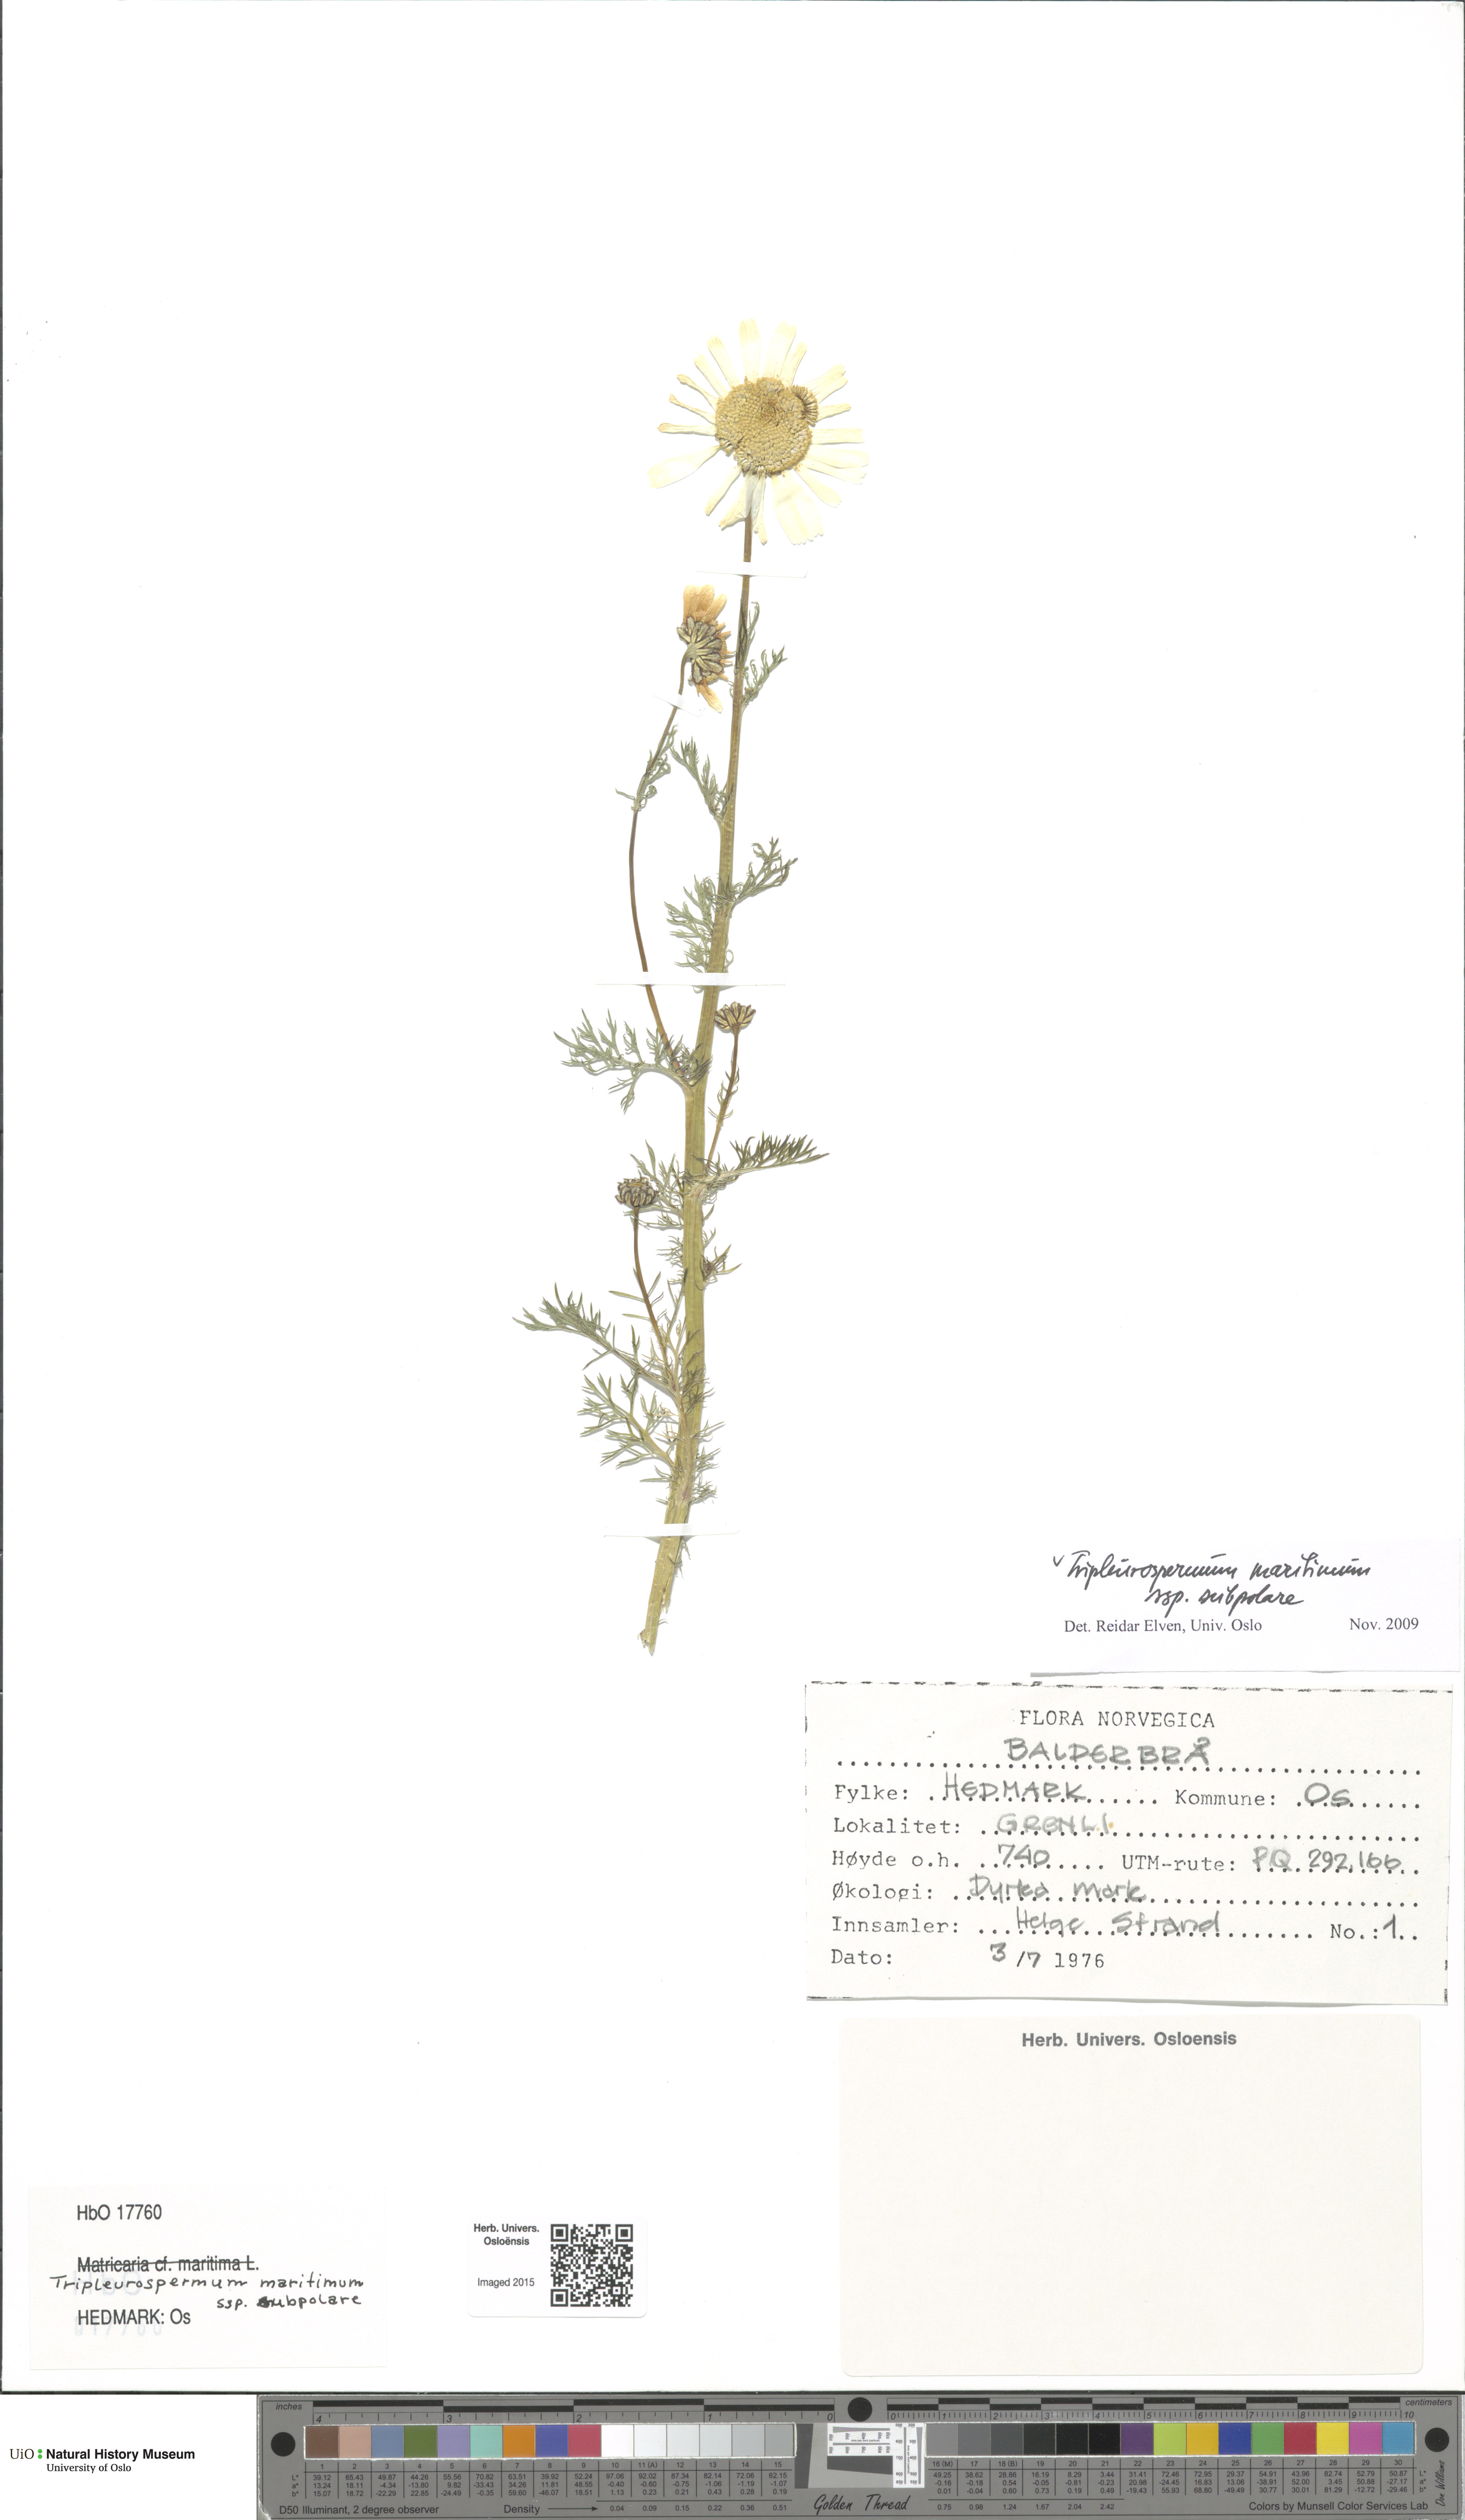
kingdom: Plantae
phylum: Tracheophyta
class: Magnoliopsida
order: Asterales
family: Asteraceae
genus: Tripleurospermum
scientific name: Tripleurospermum subpolare
